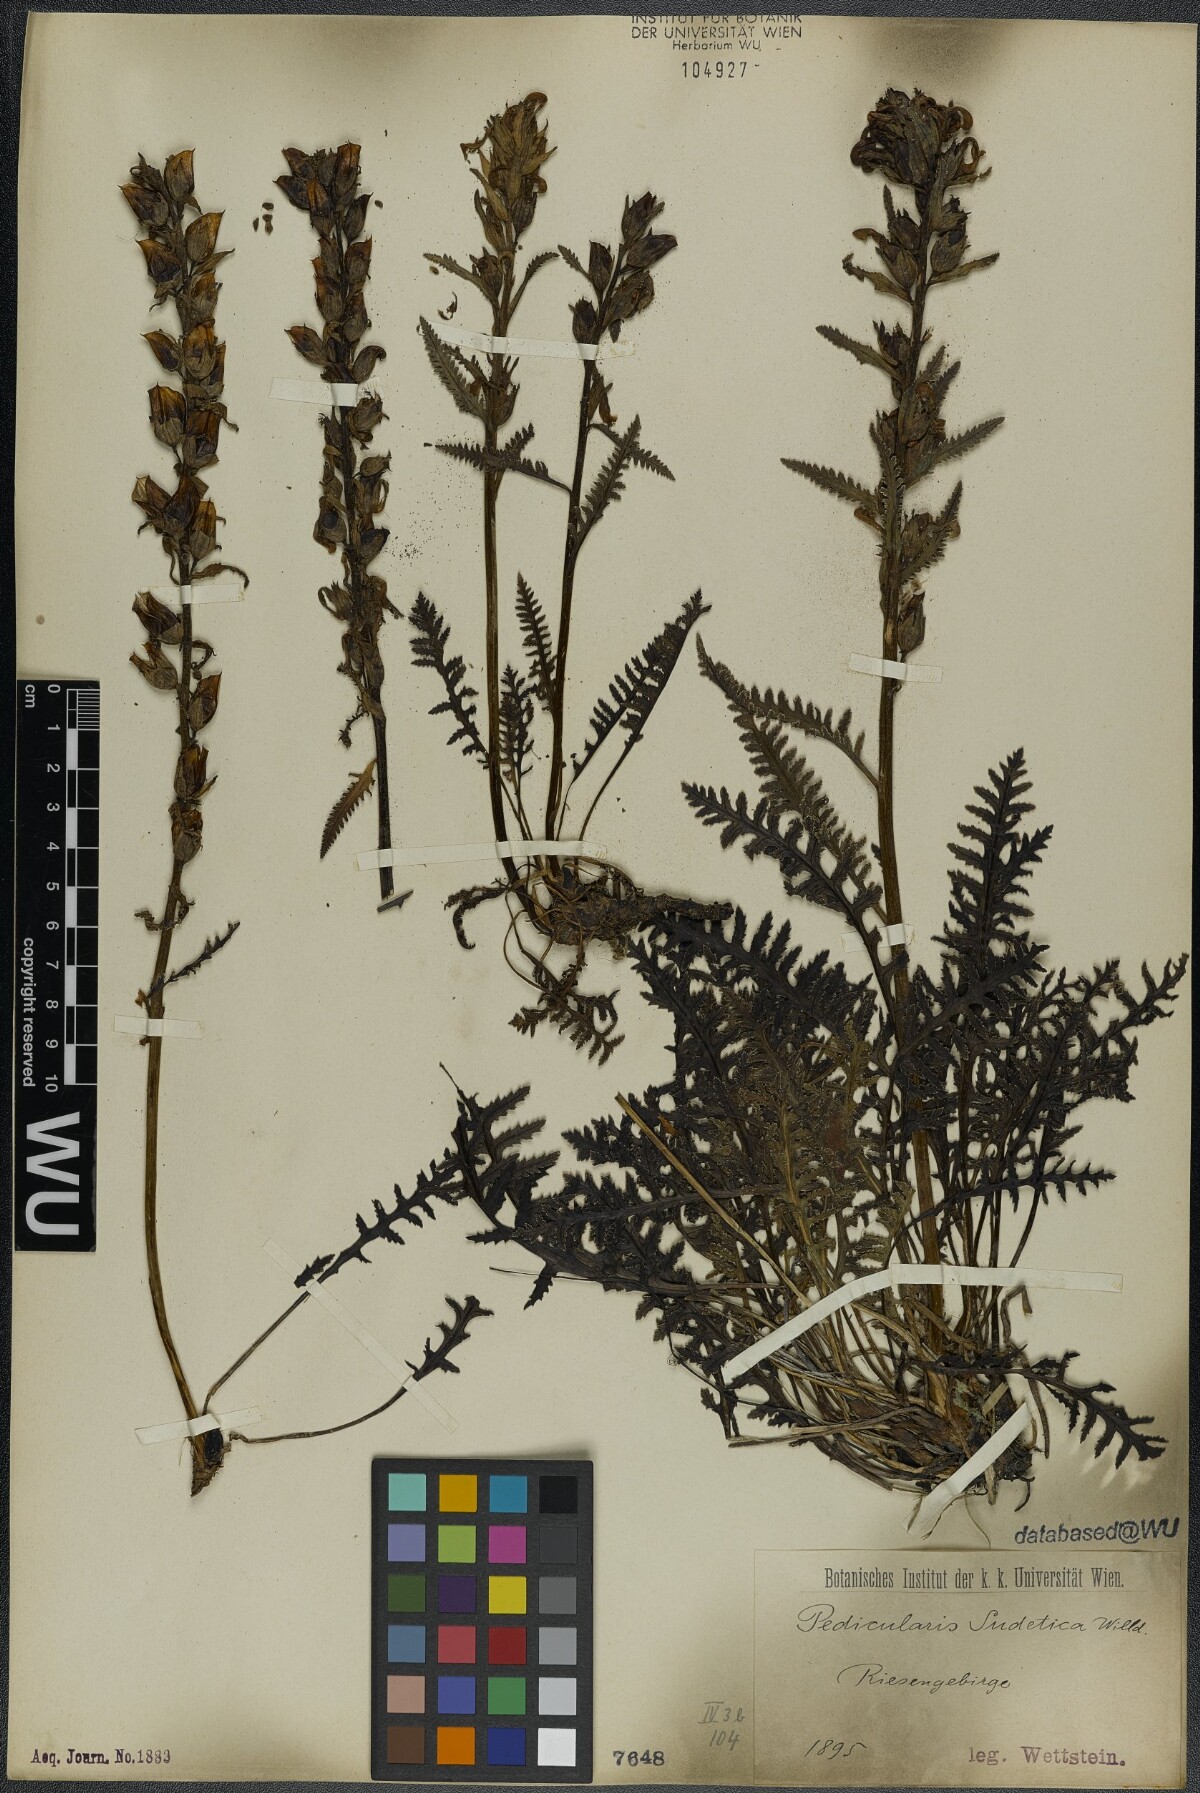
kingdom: Plantae
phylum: Tracheophyta
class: Magnoliopsida
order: Lamiales
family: Orobanchaceae
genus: Pedicularis
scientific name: Pedicularis sudetica
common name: Sudeten lousewort
